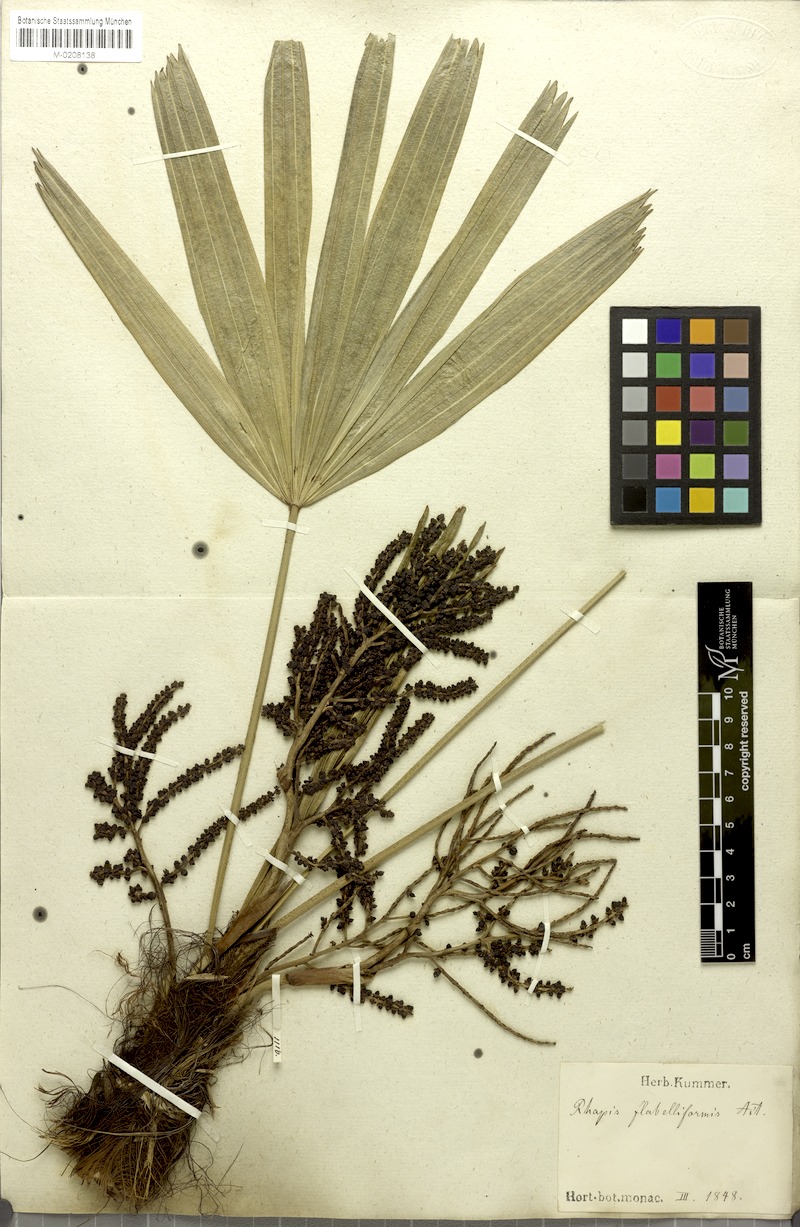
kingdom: Plantae
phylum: Tracheophyta
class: Liliopsida
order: Arecales
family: Arecaceae
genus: Rhapis
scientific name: Rhapis excelsa
